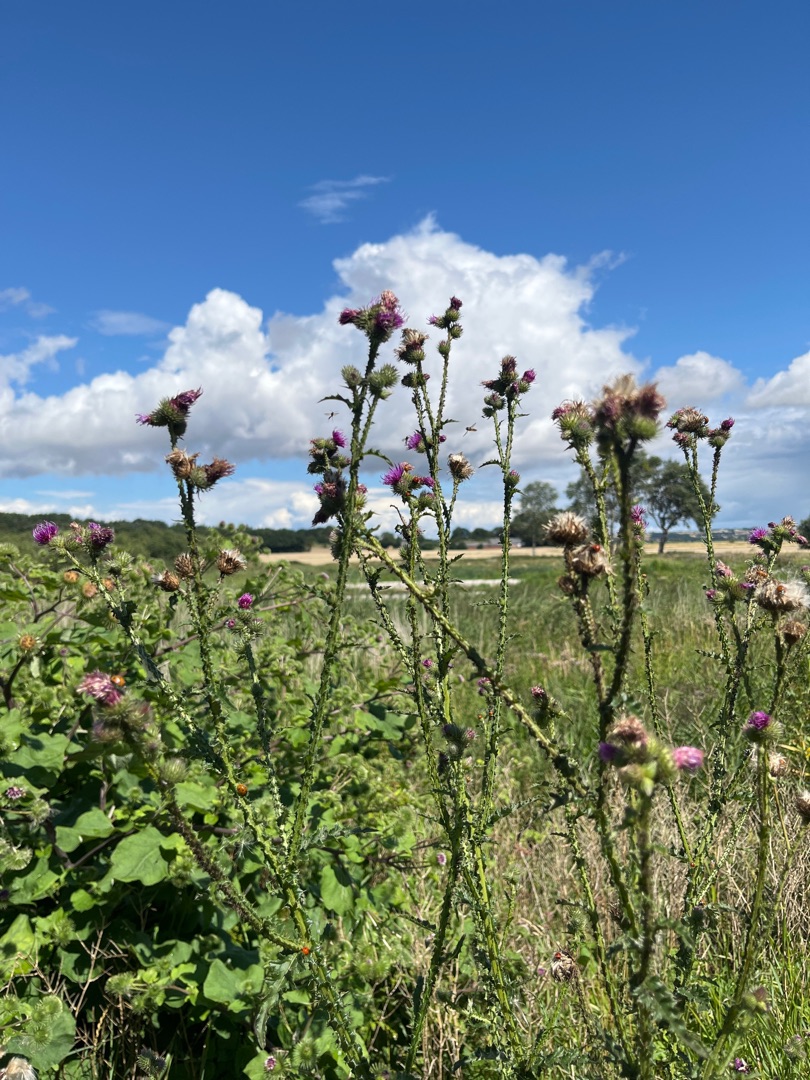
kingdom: Plantae
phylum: Tracheophyta
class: Magnoliopsida
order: Asterales
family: Asteraceae
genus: Carduus
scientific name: Carduus crispus
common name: Kruset tidsel
